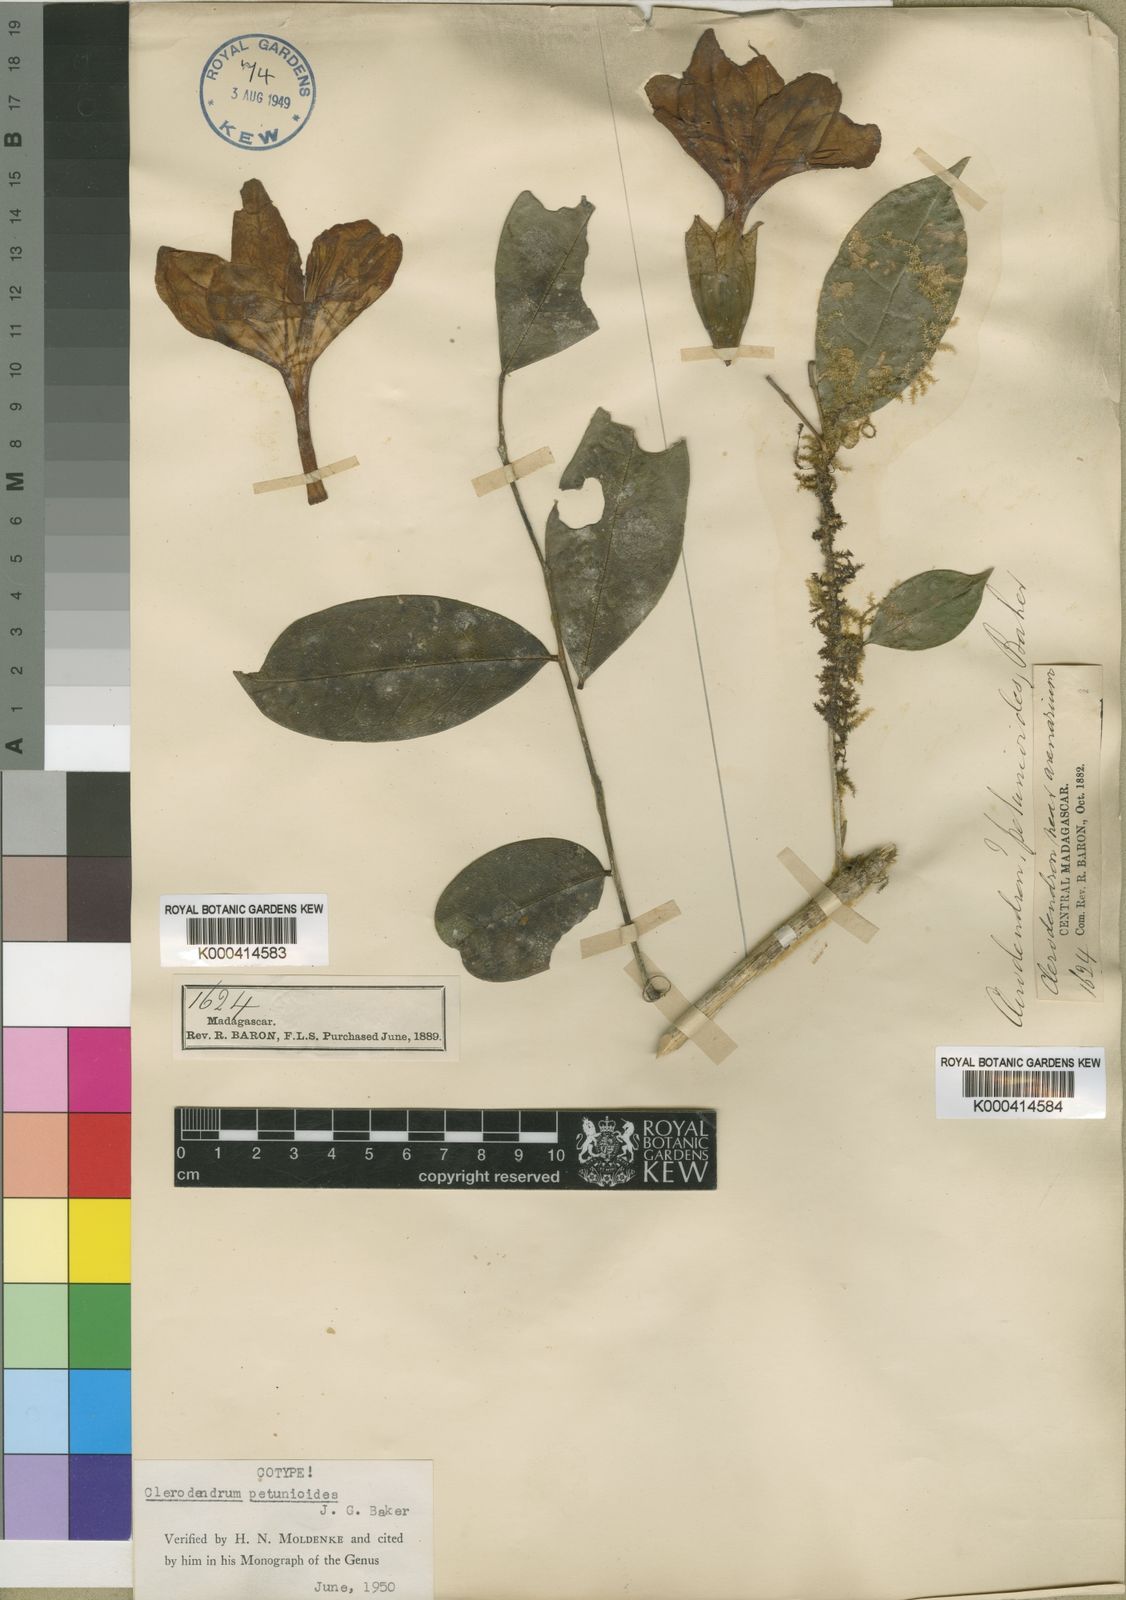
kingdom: Plantae
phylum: Tracheophyta
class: Magnoliopsida
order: Lamiales
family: Lamiaceae
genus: Clerodendrum
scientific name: Clerodendrum petunioides
